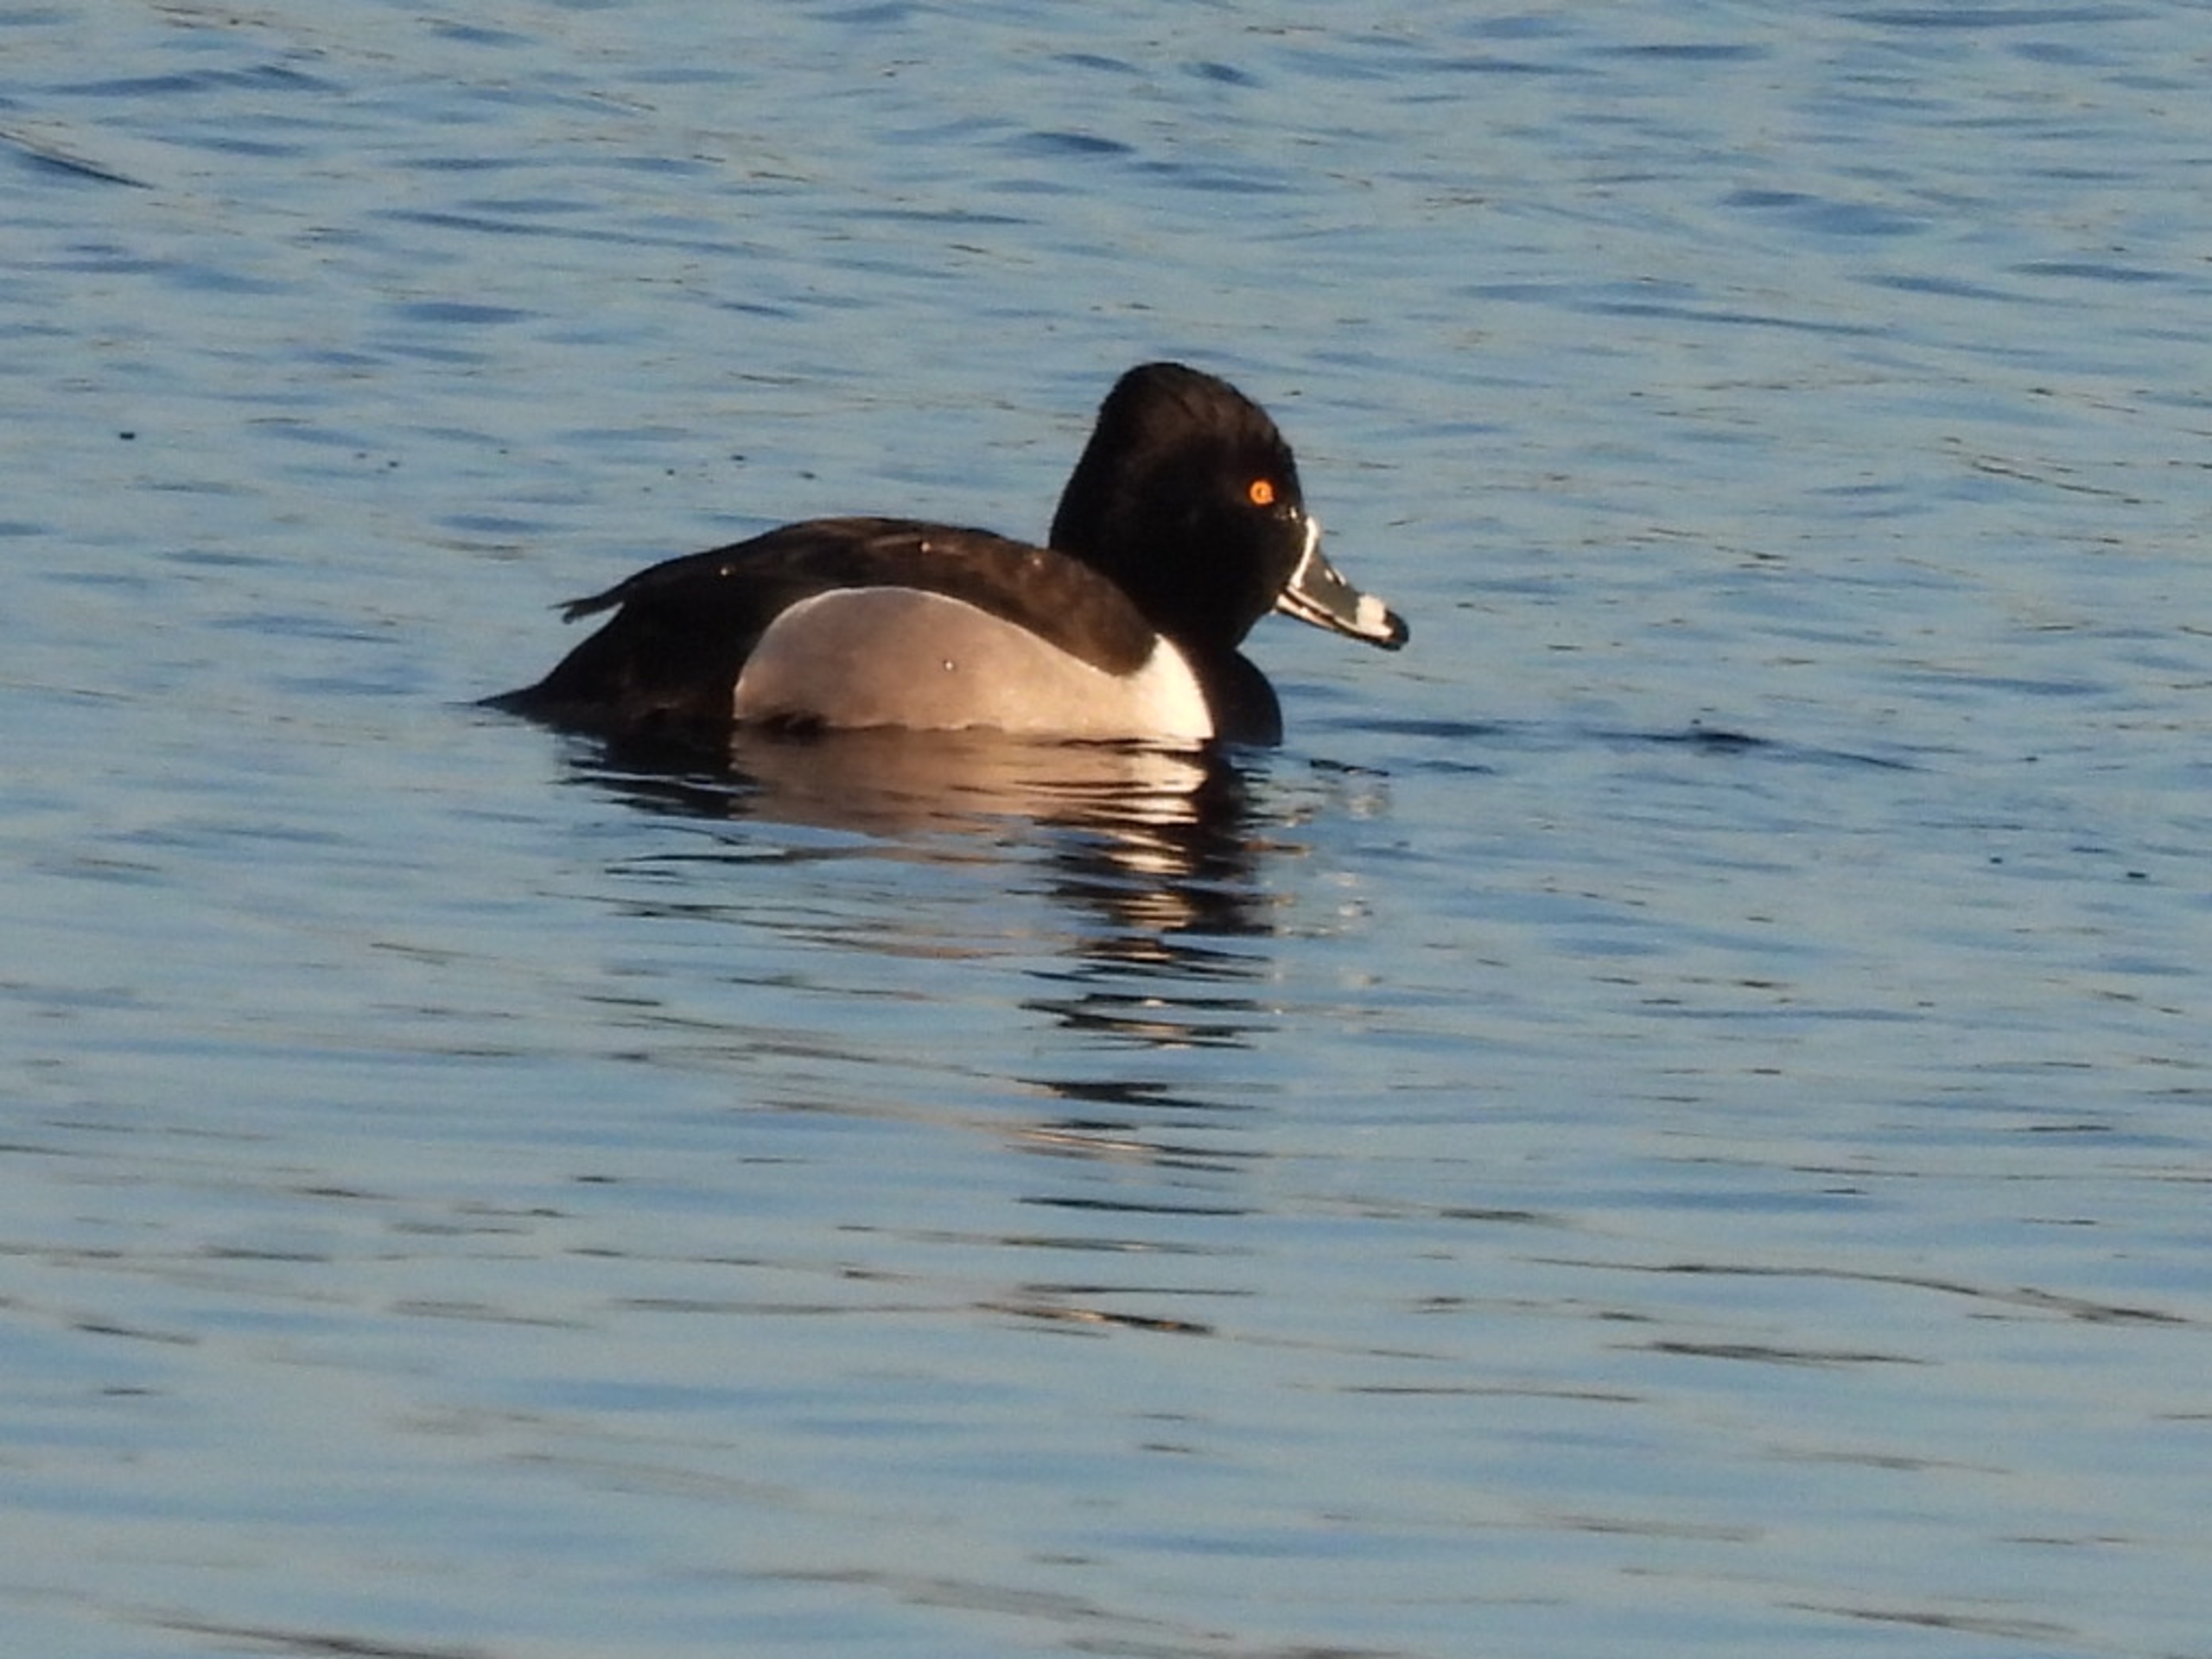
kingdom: Animalia
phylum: Chordata
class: Aves
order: Anseriformes
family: Anatidae
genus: Aythya
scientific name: Aythya collaris
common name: Halsbåndstroldand
